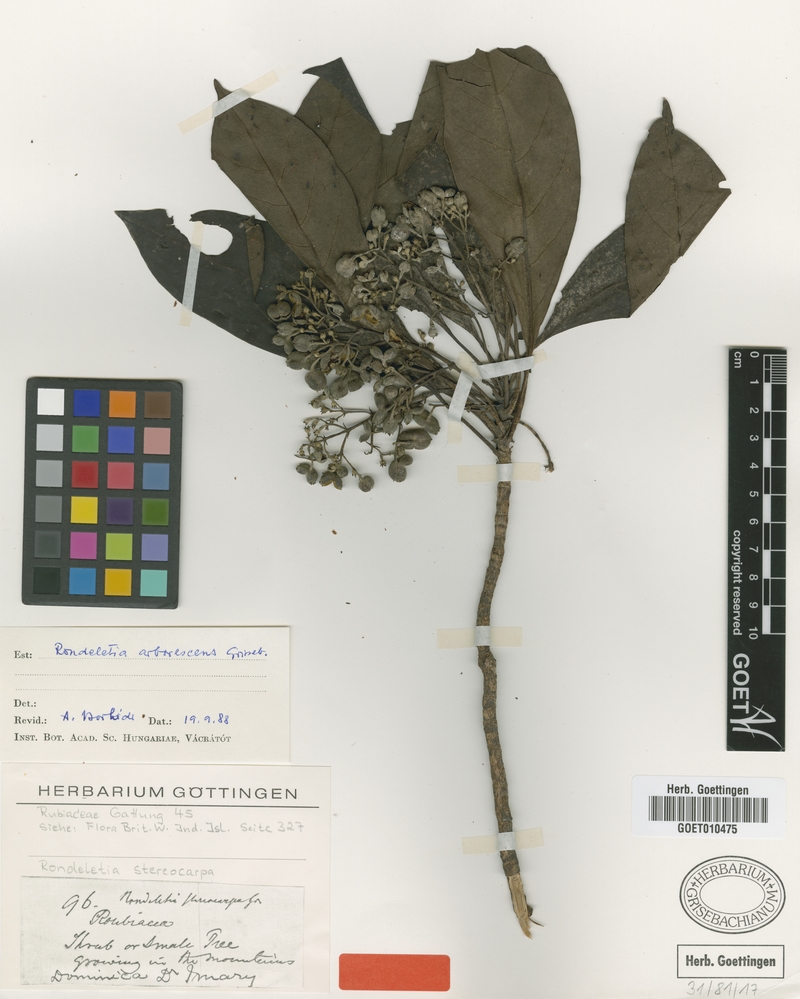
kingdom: Plantae
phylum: Tracheophyta
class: Magnoliopsida
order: Gentianales
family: Rubiaceae
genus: Rondeletia
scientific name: Rondeletia parviflora
